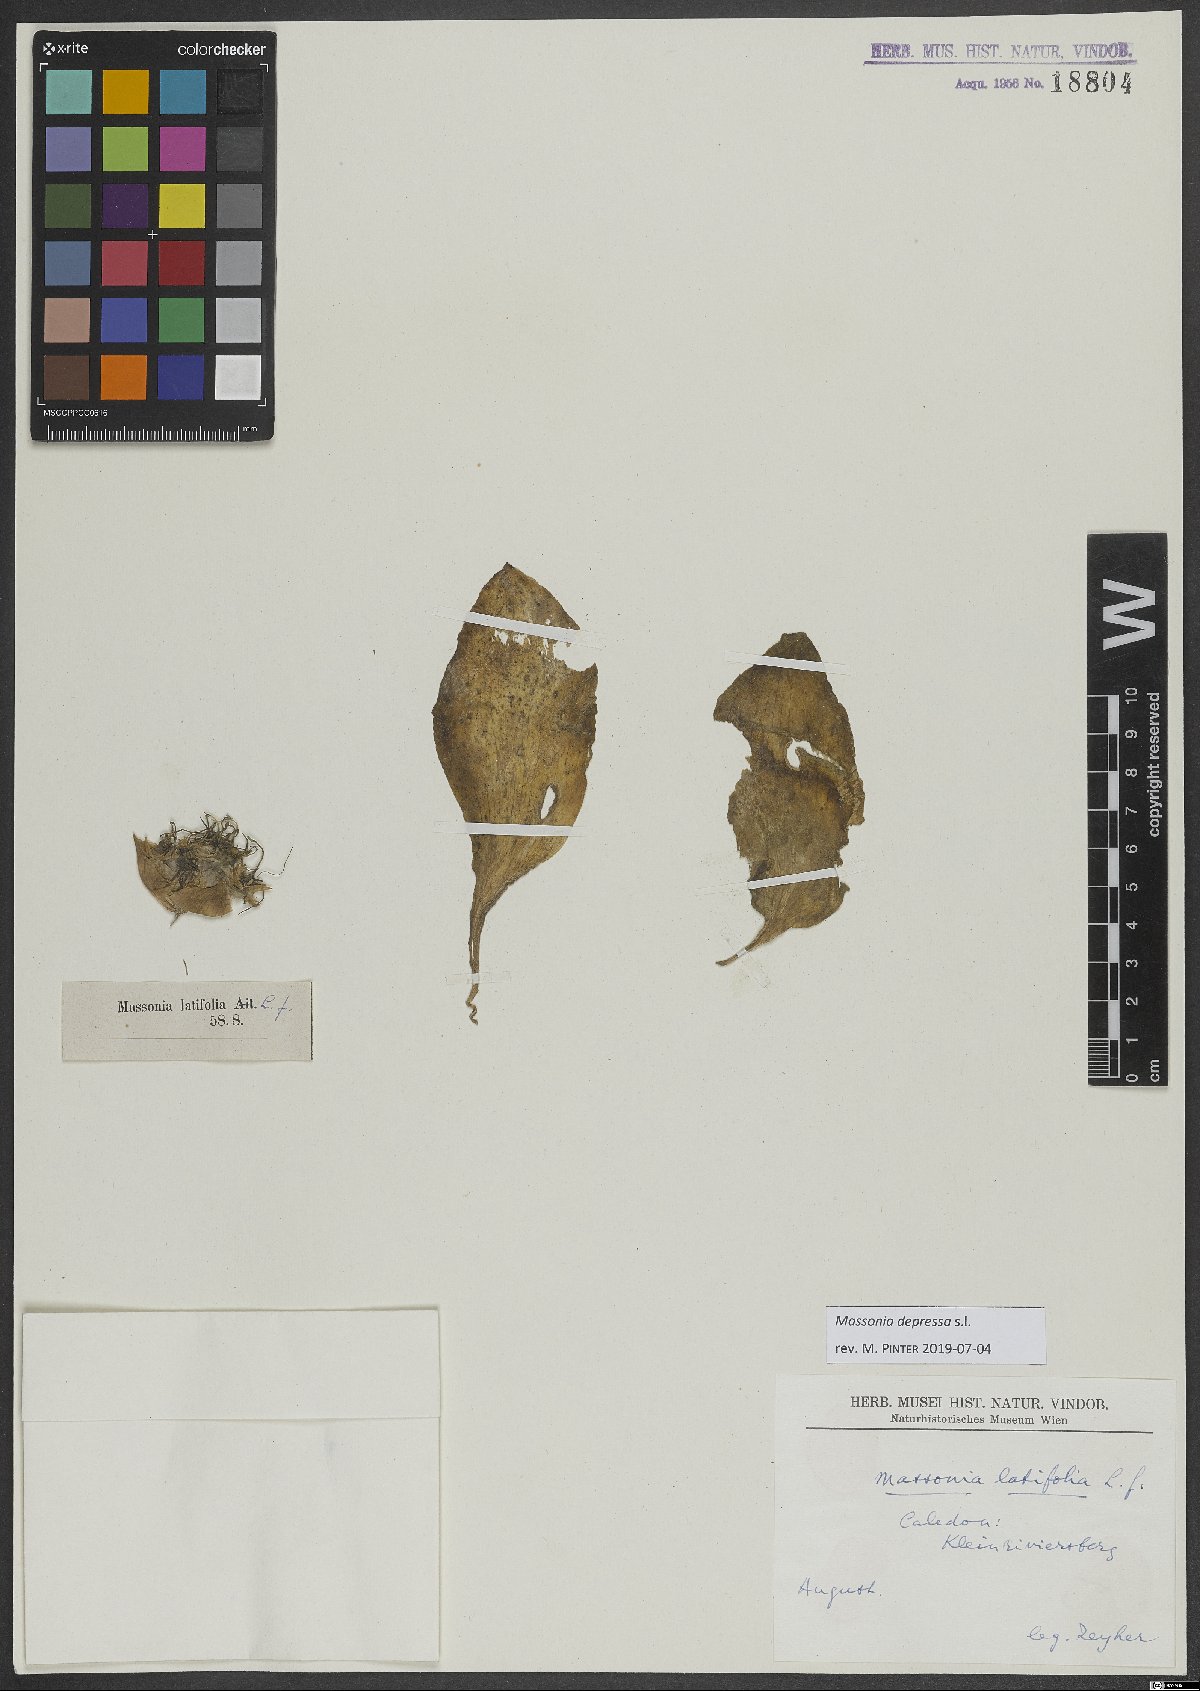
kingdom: Plantae
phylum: Tracheophyta
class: Liliopsida
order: Asparagales
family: Asparagaceae
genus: Massonia
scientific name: Massonia depressa
